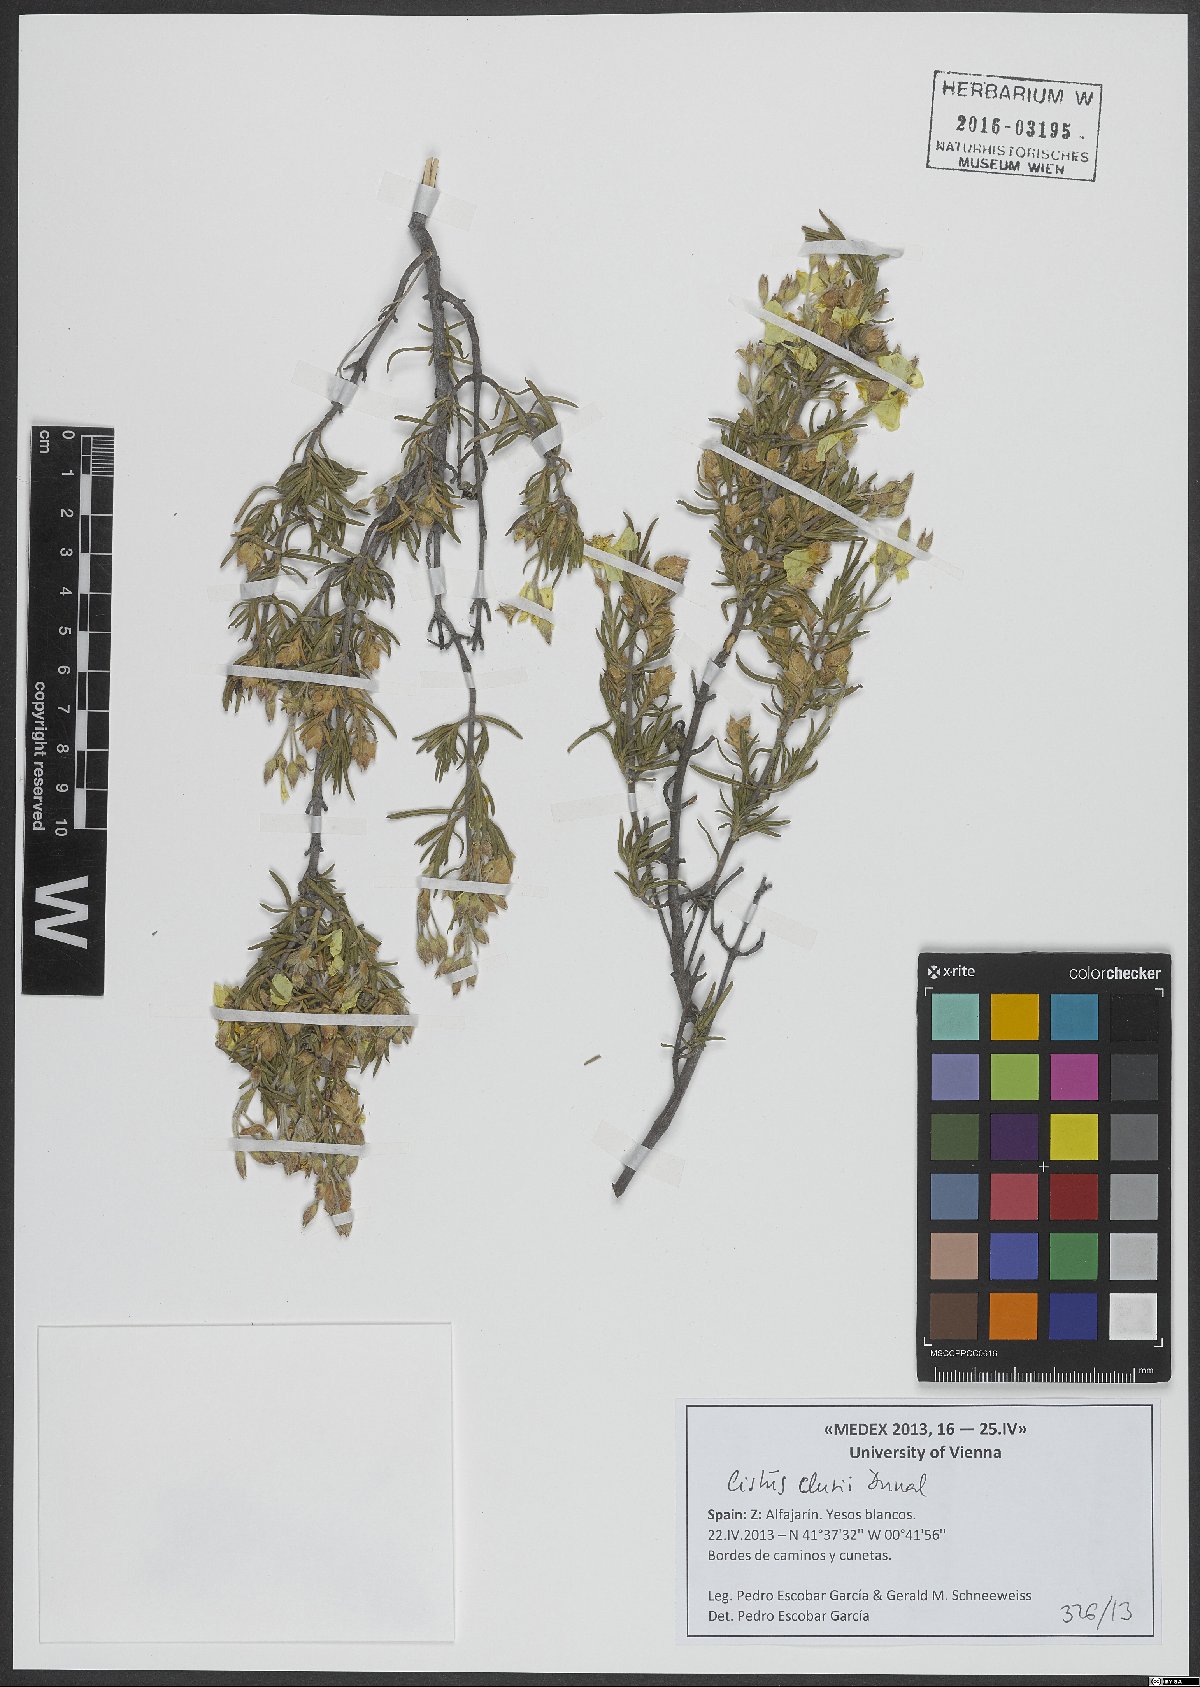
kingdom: Plantae
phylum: Tracheophyta
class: Magnoliopsida
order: Malvales
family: Cistaceae
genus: Cistus
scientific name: Cistus clusii
